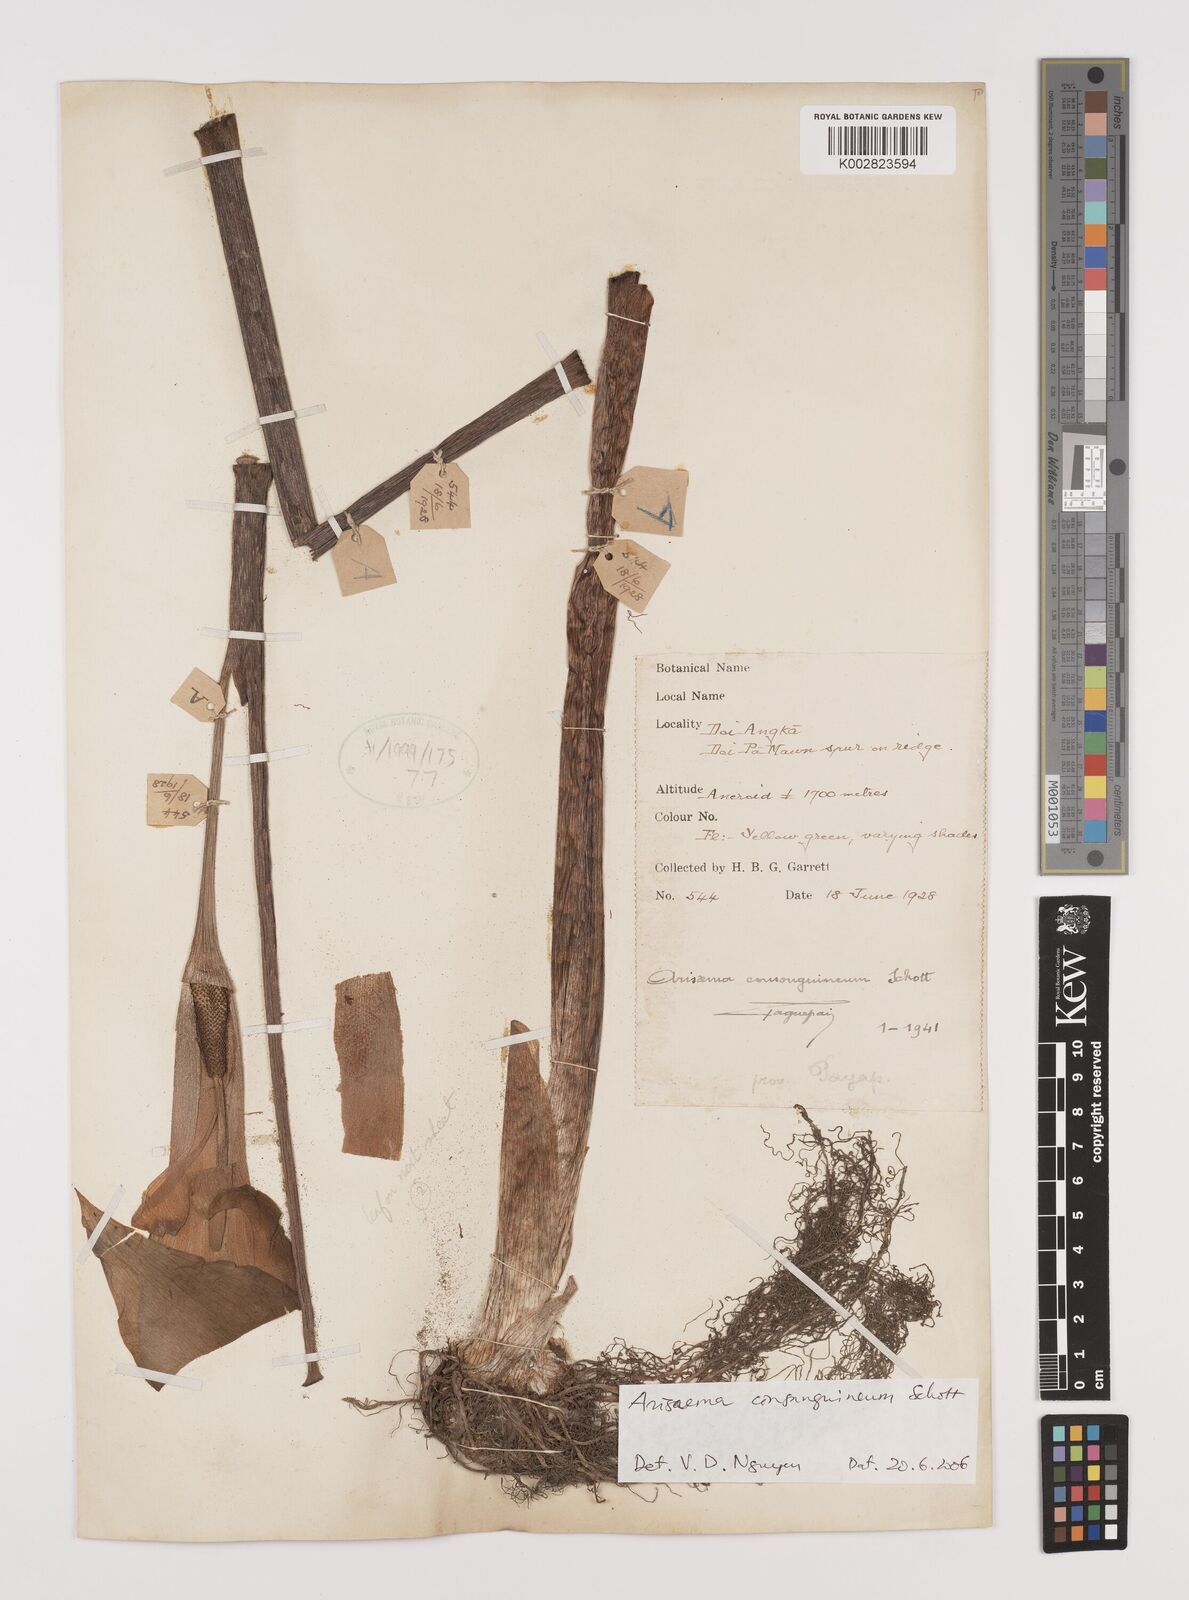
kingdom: Plantae
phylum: Tracheophyta
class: Liliopsida
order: Alismatales
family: Araceae
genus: Arisaema
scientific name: Arisaema consanguineum
